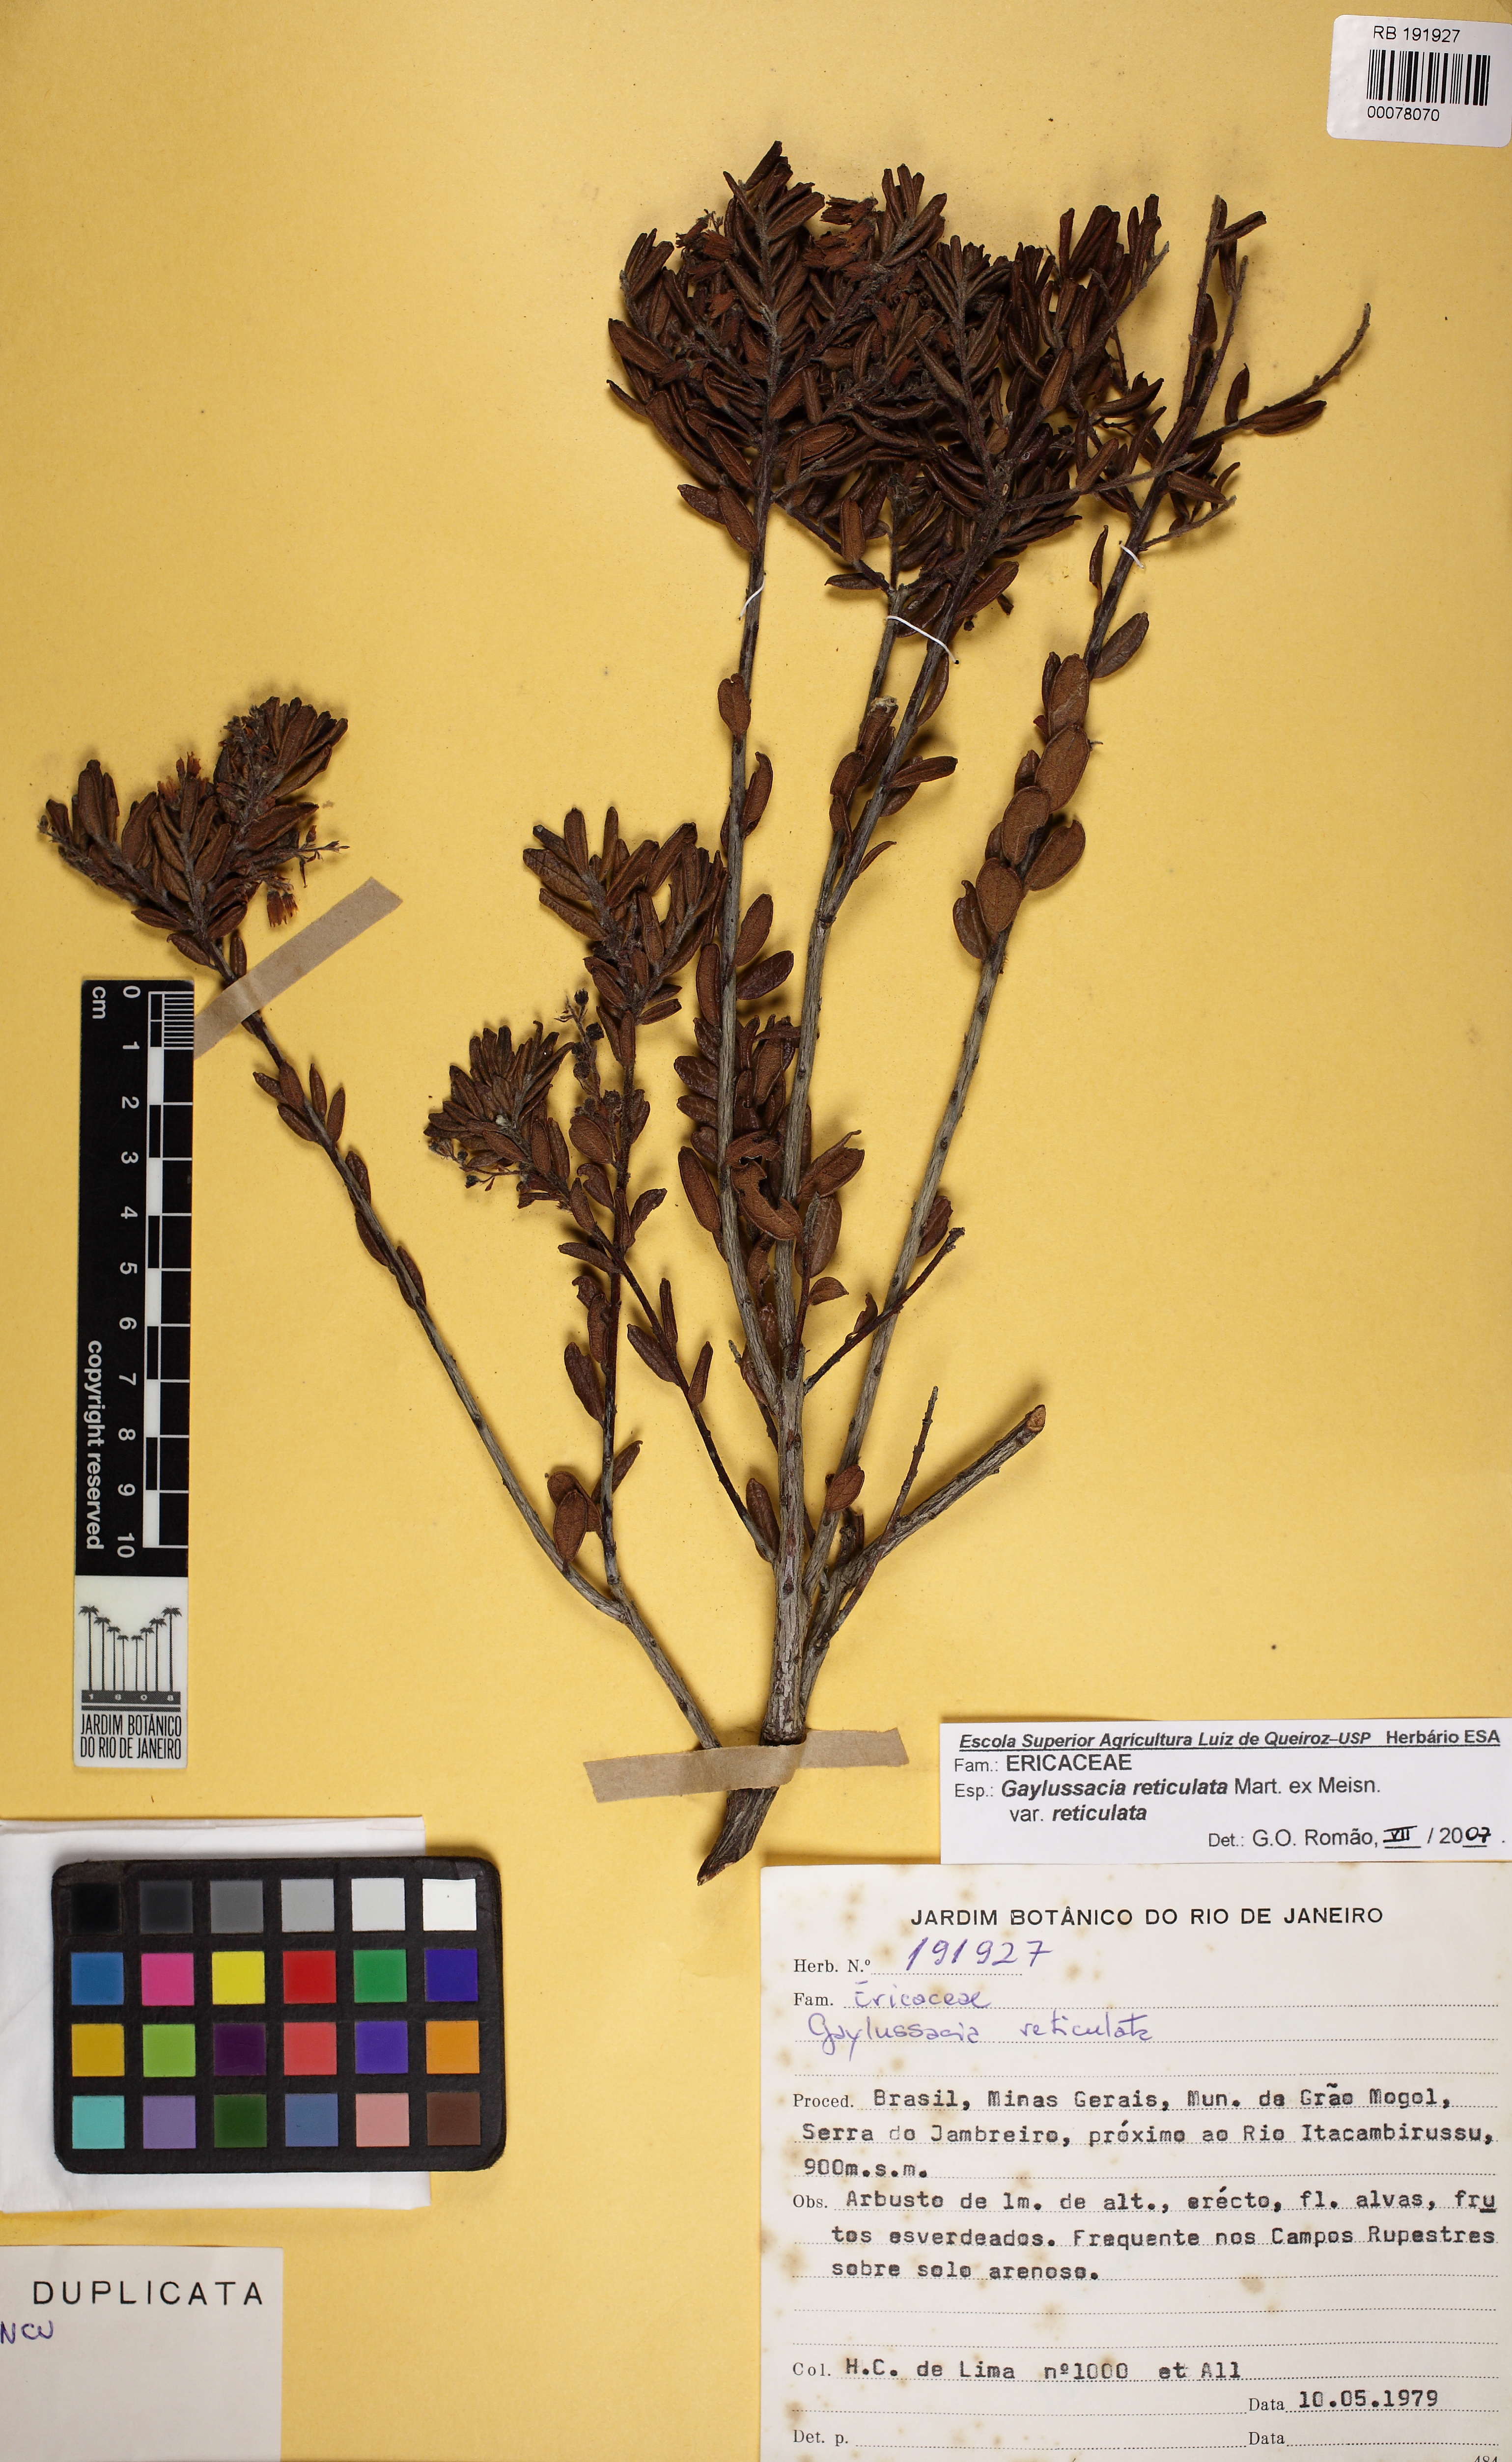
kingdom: Plantae
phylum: Tracheophyta
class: Magnoliopsida
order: Ericales
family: Ericaceae
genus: Gaylussacia
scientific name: Gaylussacia reticulata
